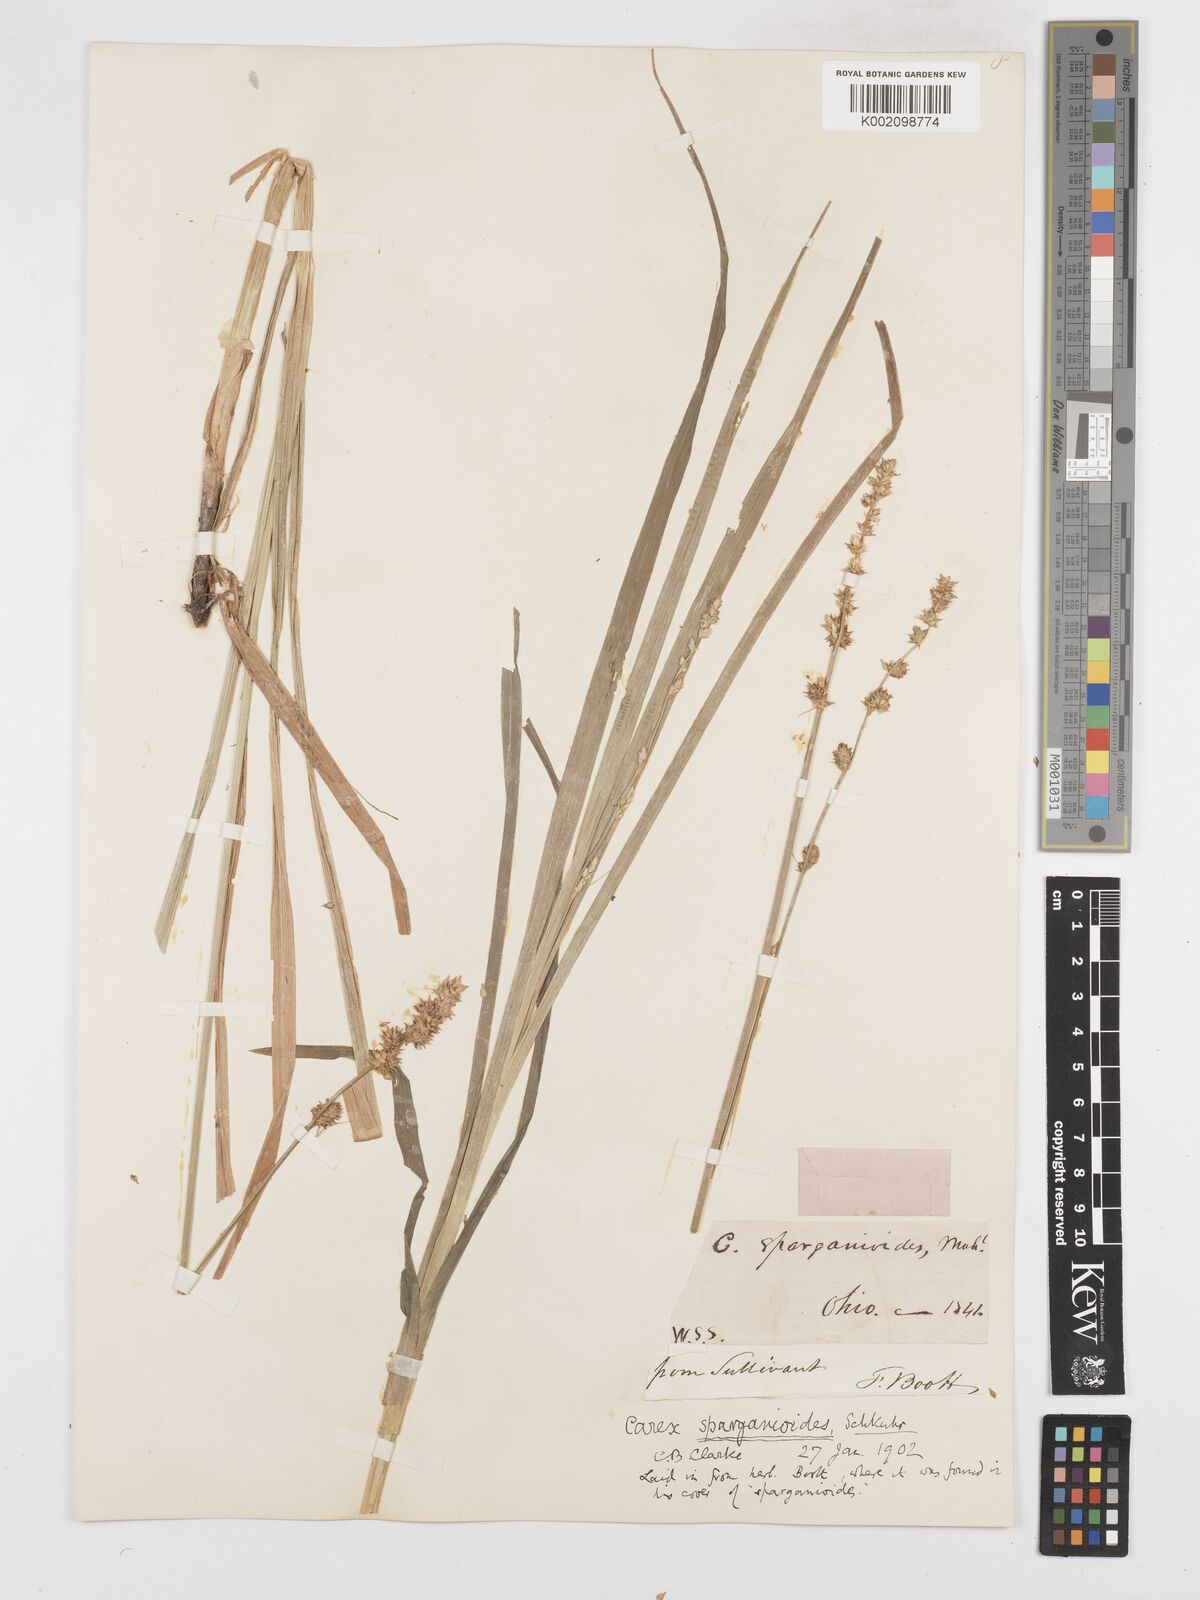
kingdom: Plantae
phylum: Tracheophyta
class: Liliopsida
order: Poales
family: Cyperaceae
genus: Carex
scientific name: Carex sparganioides
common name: Burreed sedge
